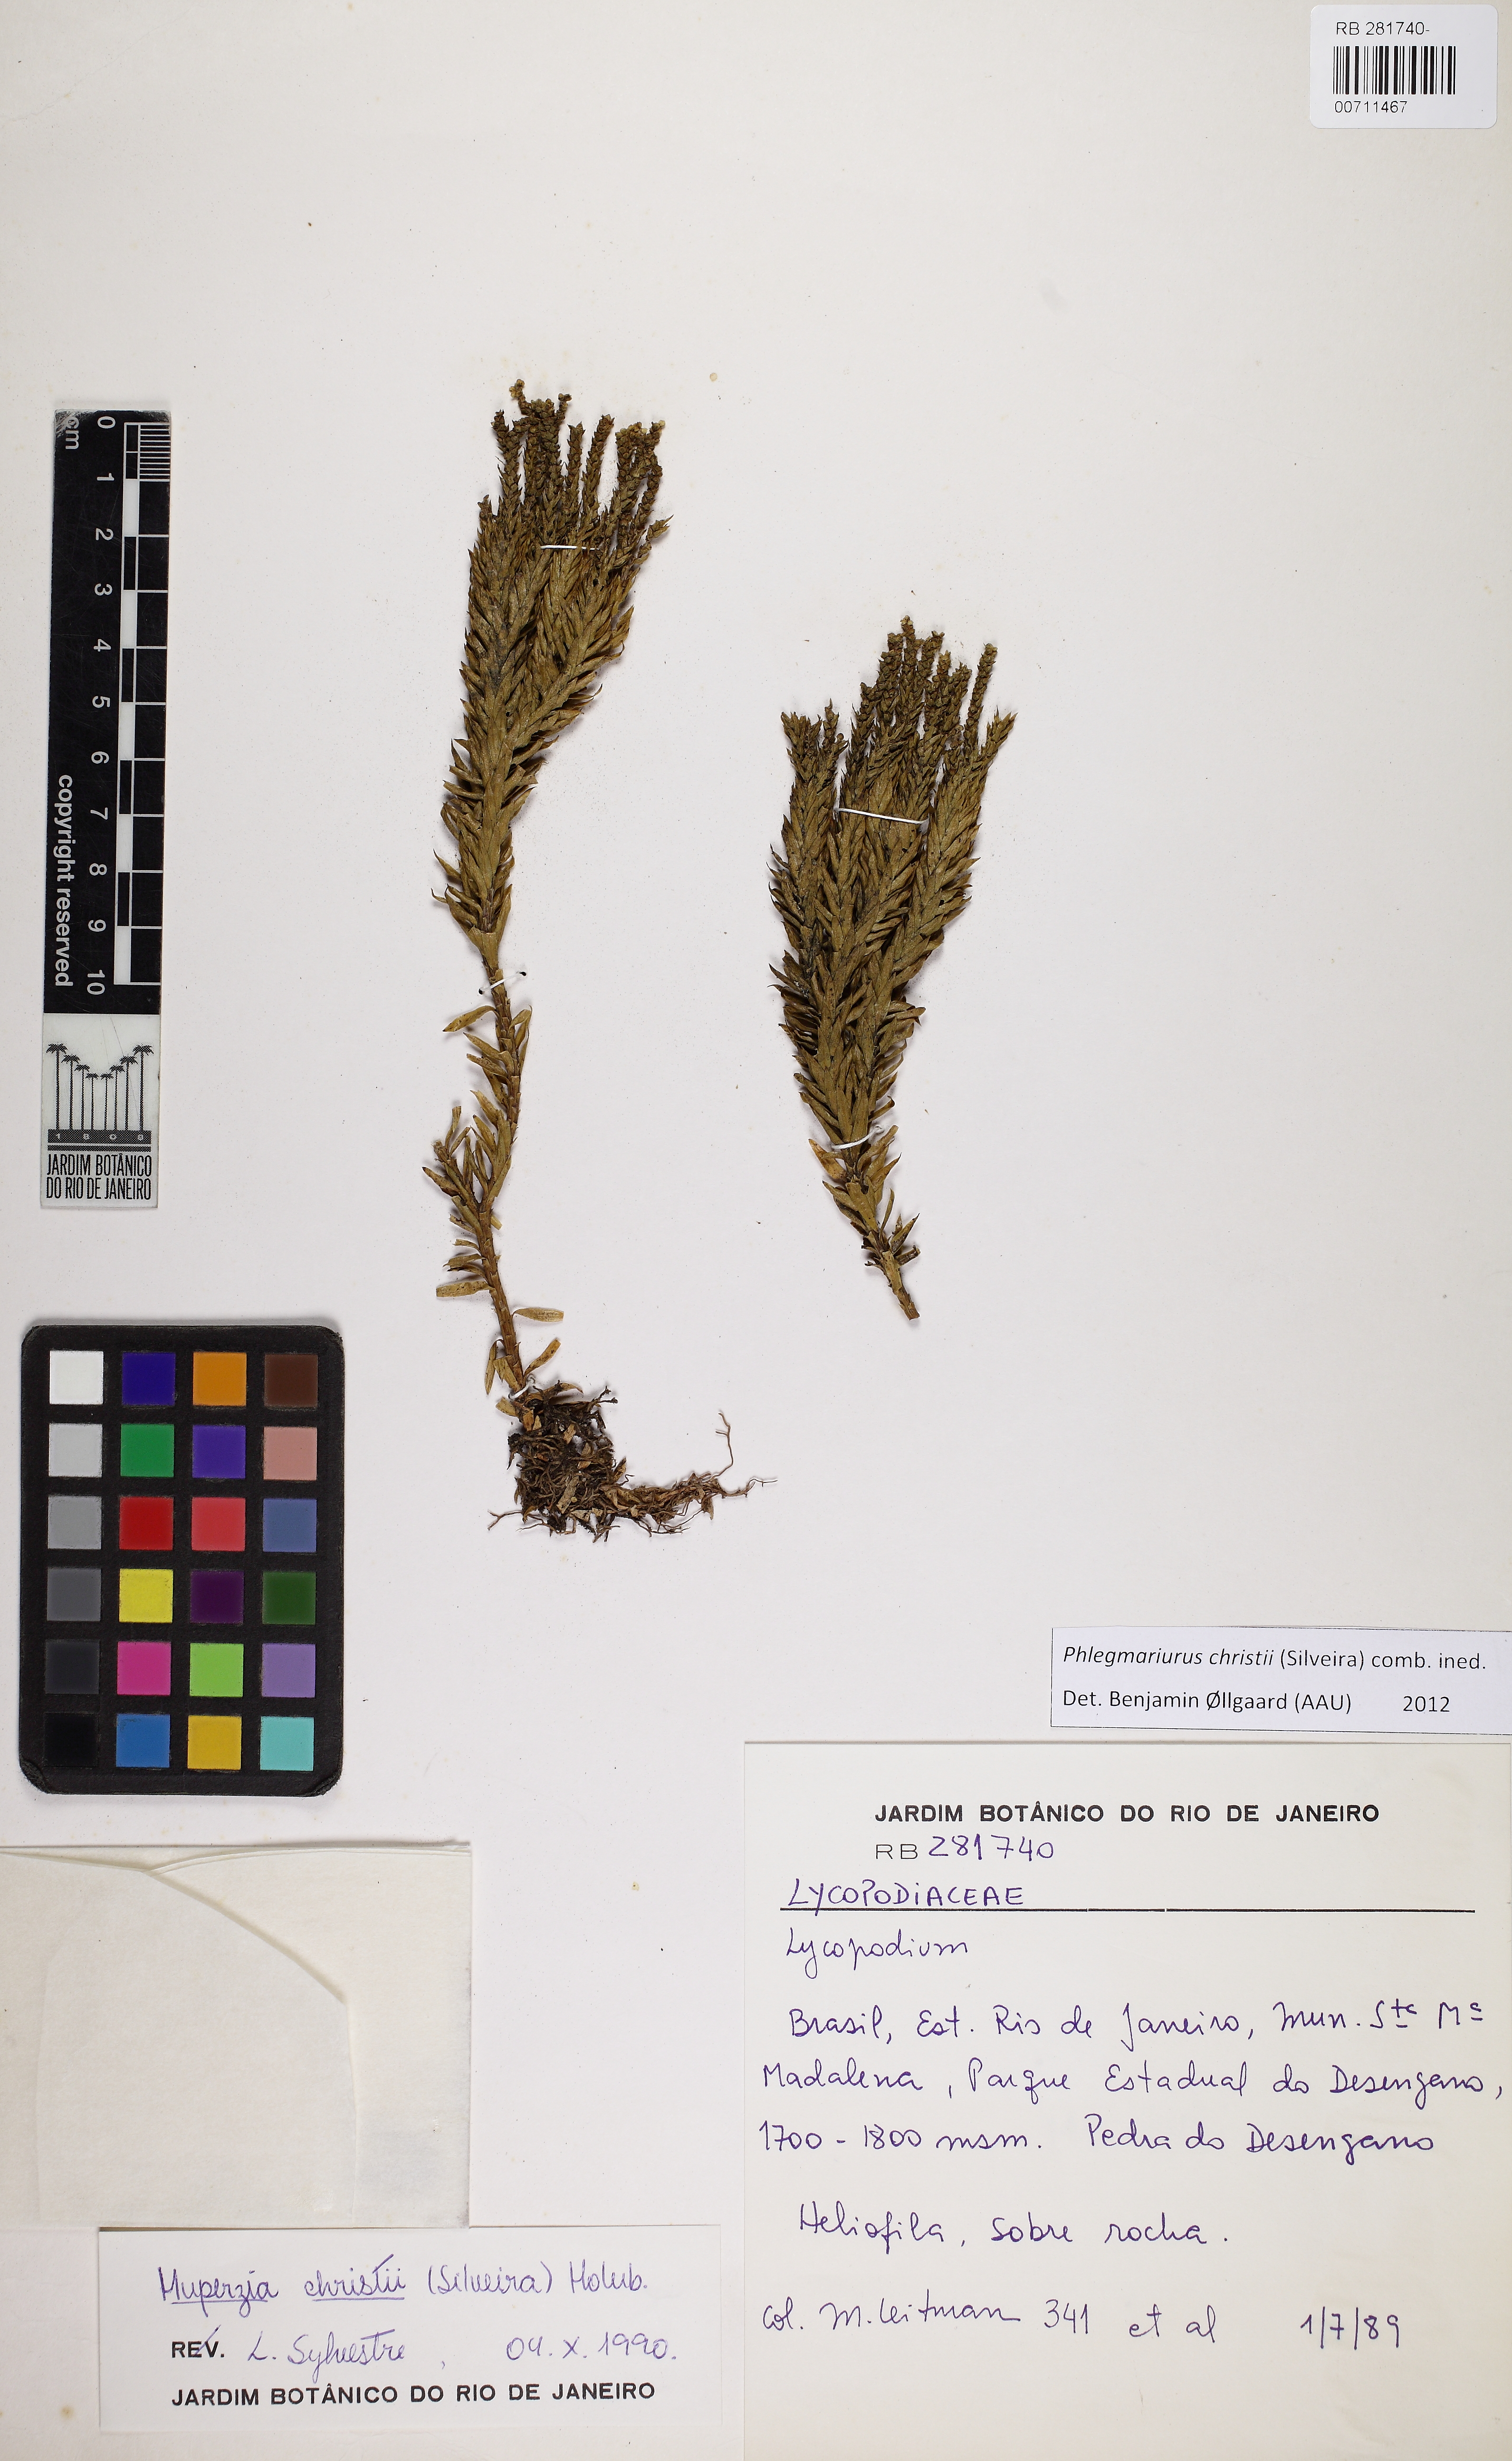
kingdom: Plantae
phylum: Tracheophyta
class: Lycopodiopsida
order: Lycopodiales
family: Lycopodiaceae
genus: Phlegmariurus
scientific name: Phlegmariurus christii
